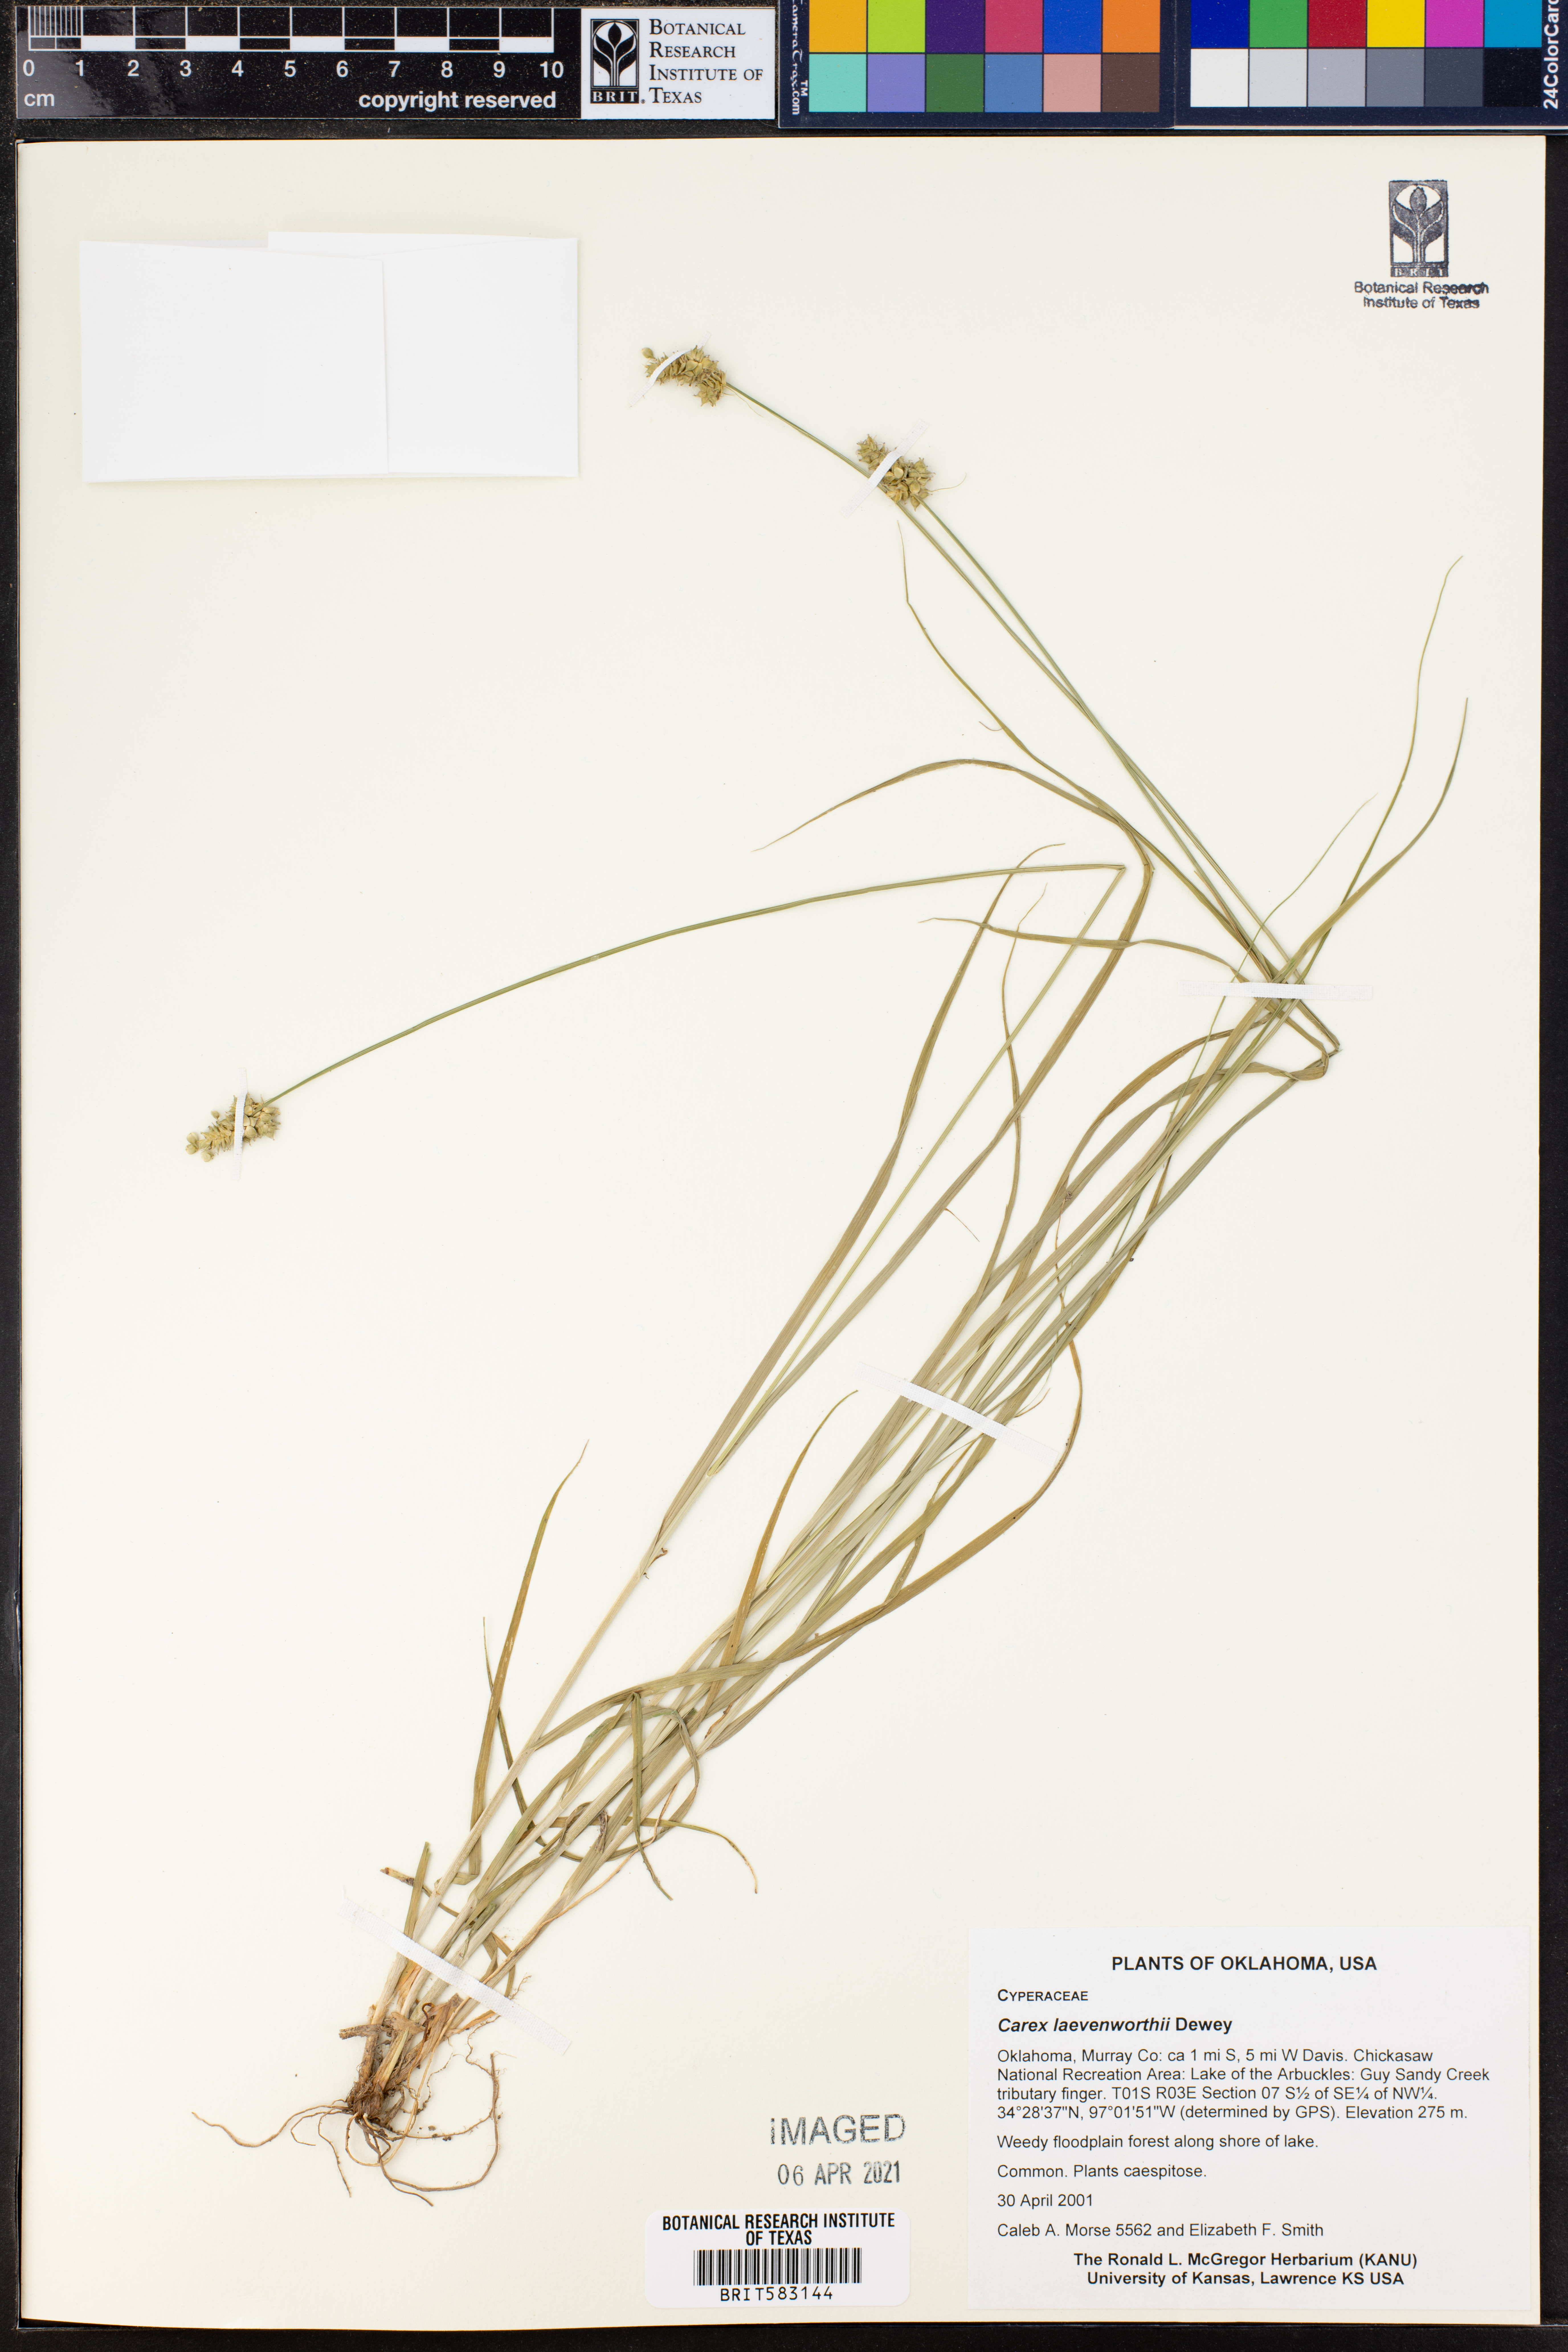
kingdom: Plantae
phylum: Tracheophyta
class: Liliopsida
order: Poales
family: Cyperaceae
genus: Carex
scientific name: Carex leavenworthii
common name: Leavenworth's bracted sedge
